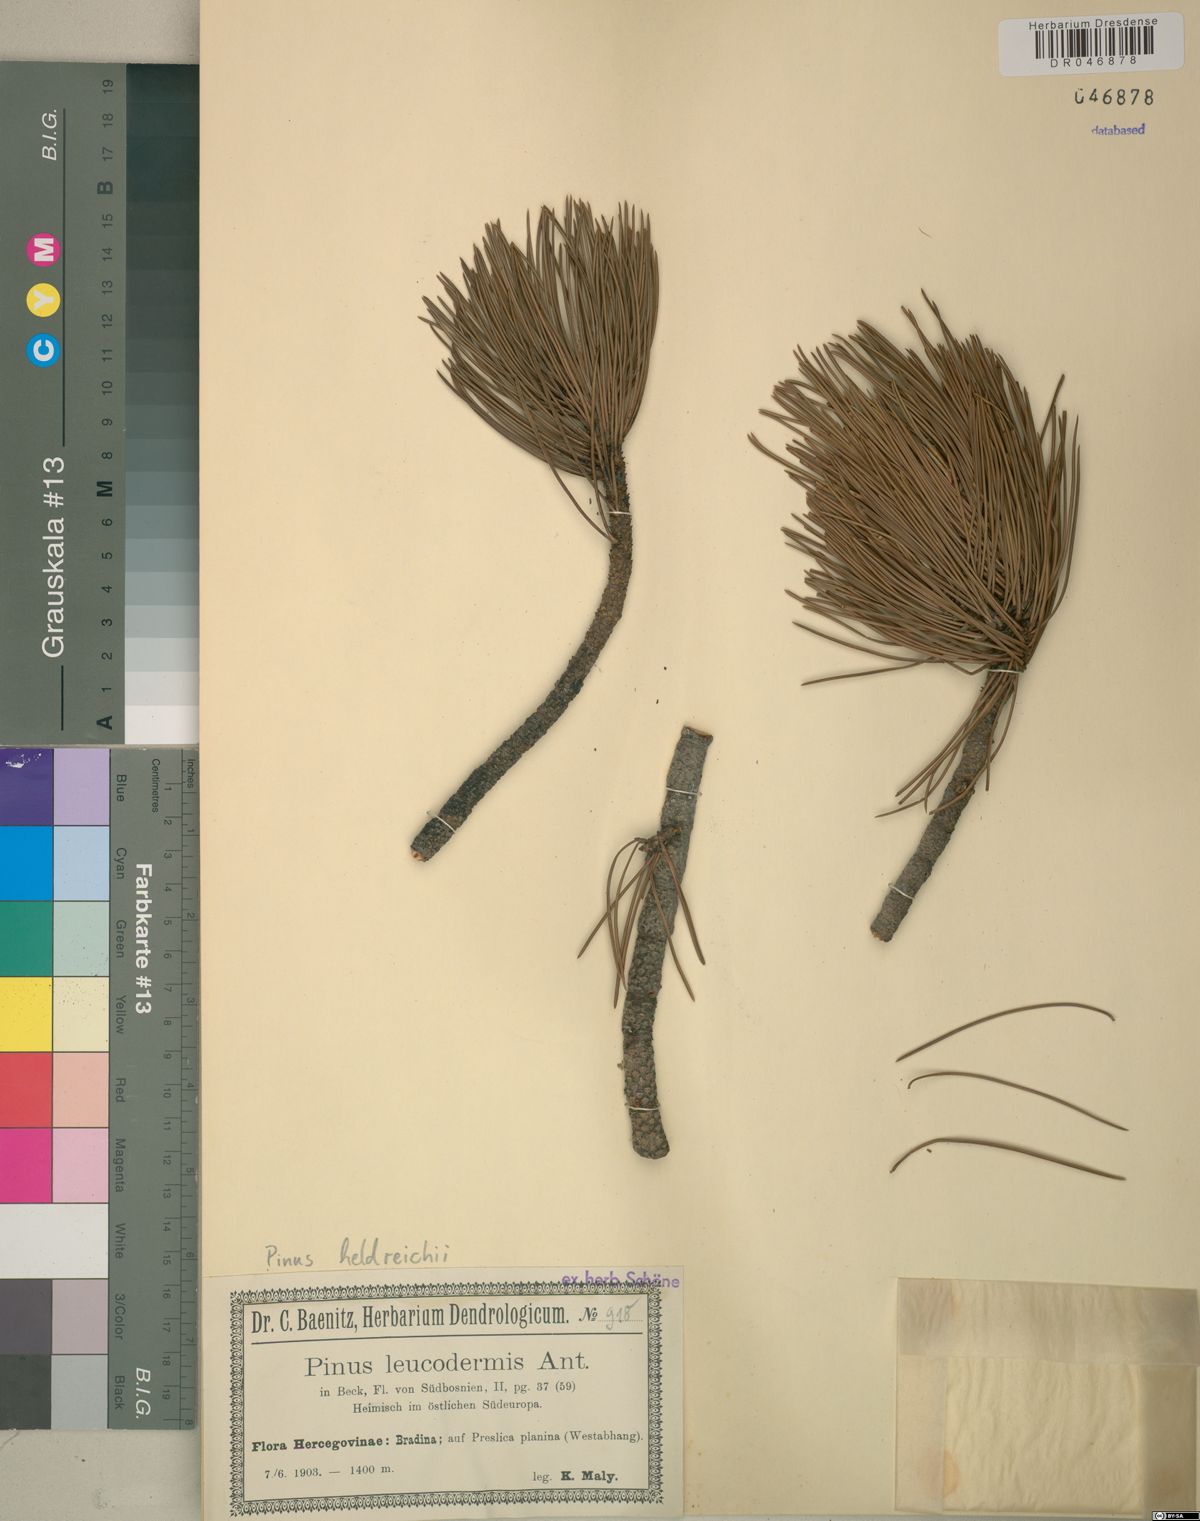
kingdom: Plantae
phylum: Tracheophyta
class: Pinopsida
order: Pinales
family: Pinaceae
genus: Pinus
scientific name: Pinus heldreichii
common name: Bosnian pine
